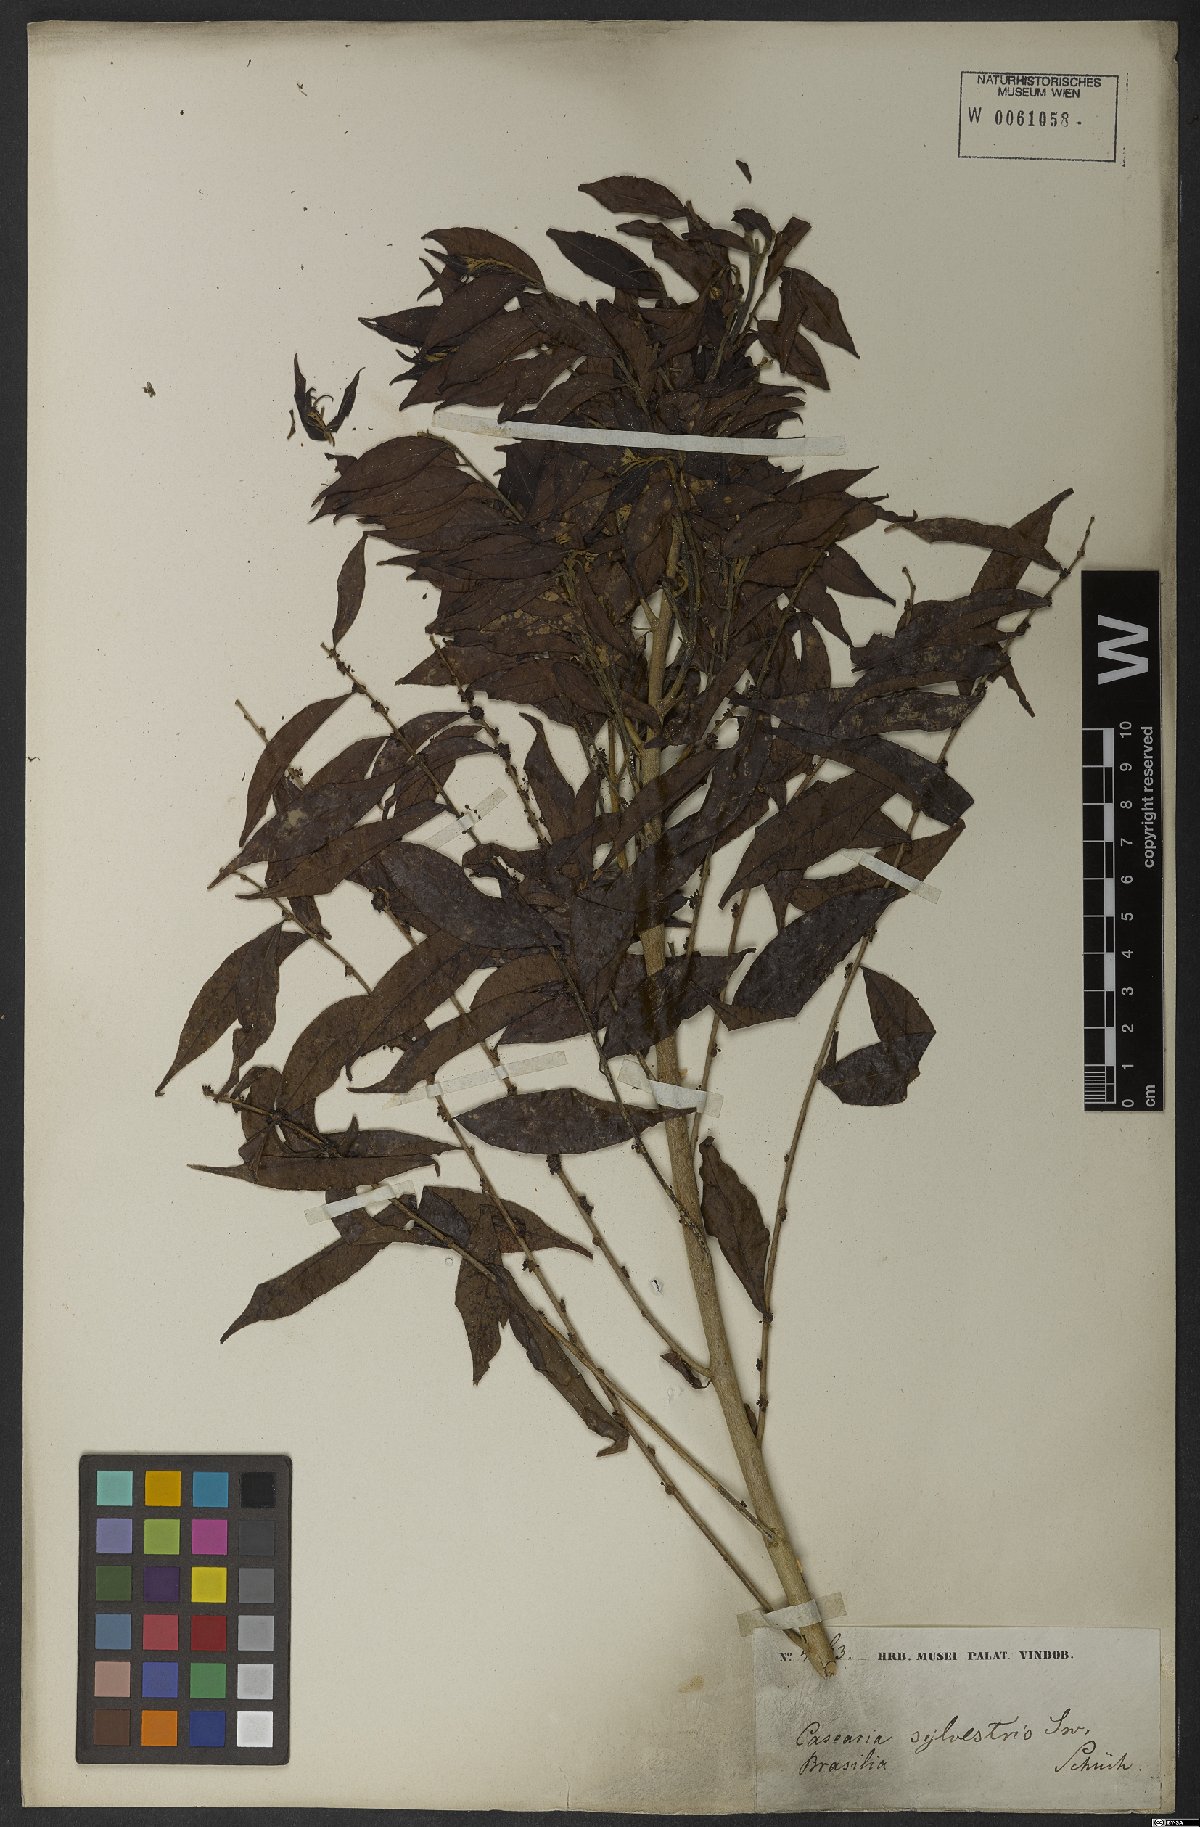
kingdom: Plantae
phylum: Tracheophyta
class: Magnoliopsida
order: Malpighiales
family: Salicaceae
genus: Casearia
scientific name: Casearia sylvestris
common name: Wild sage
